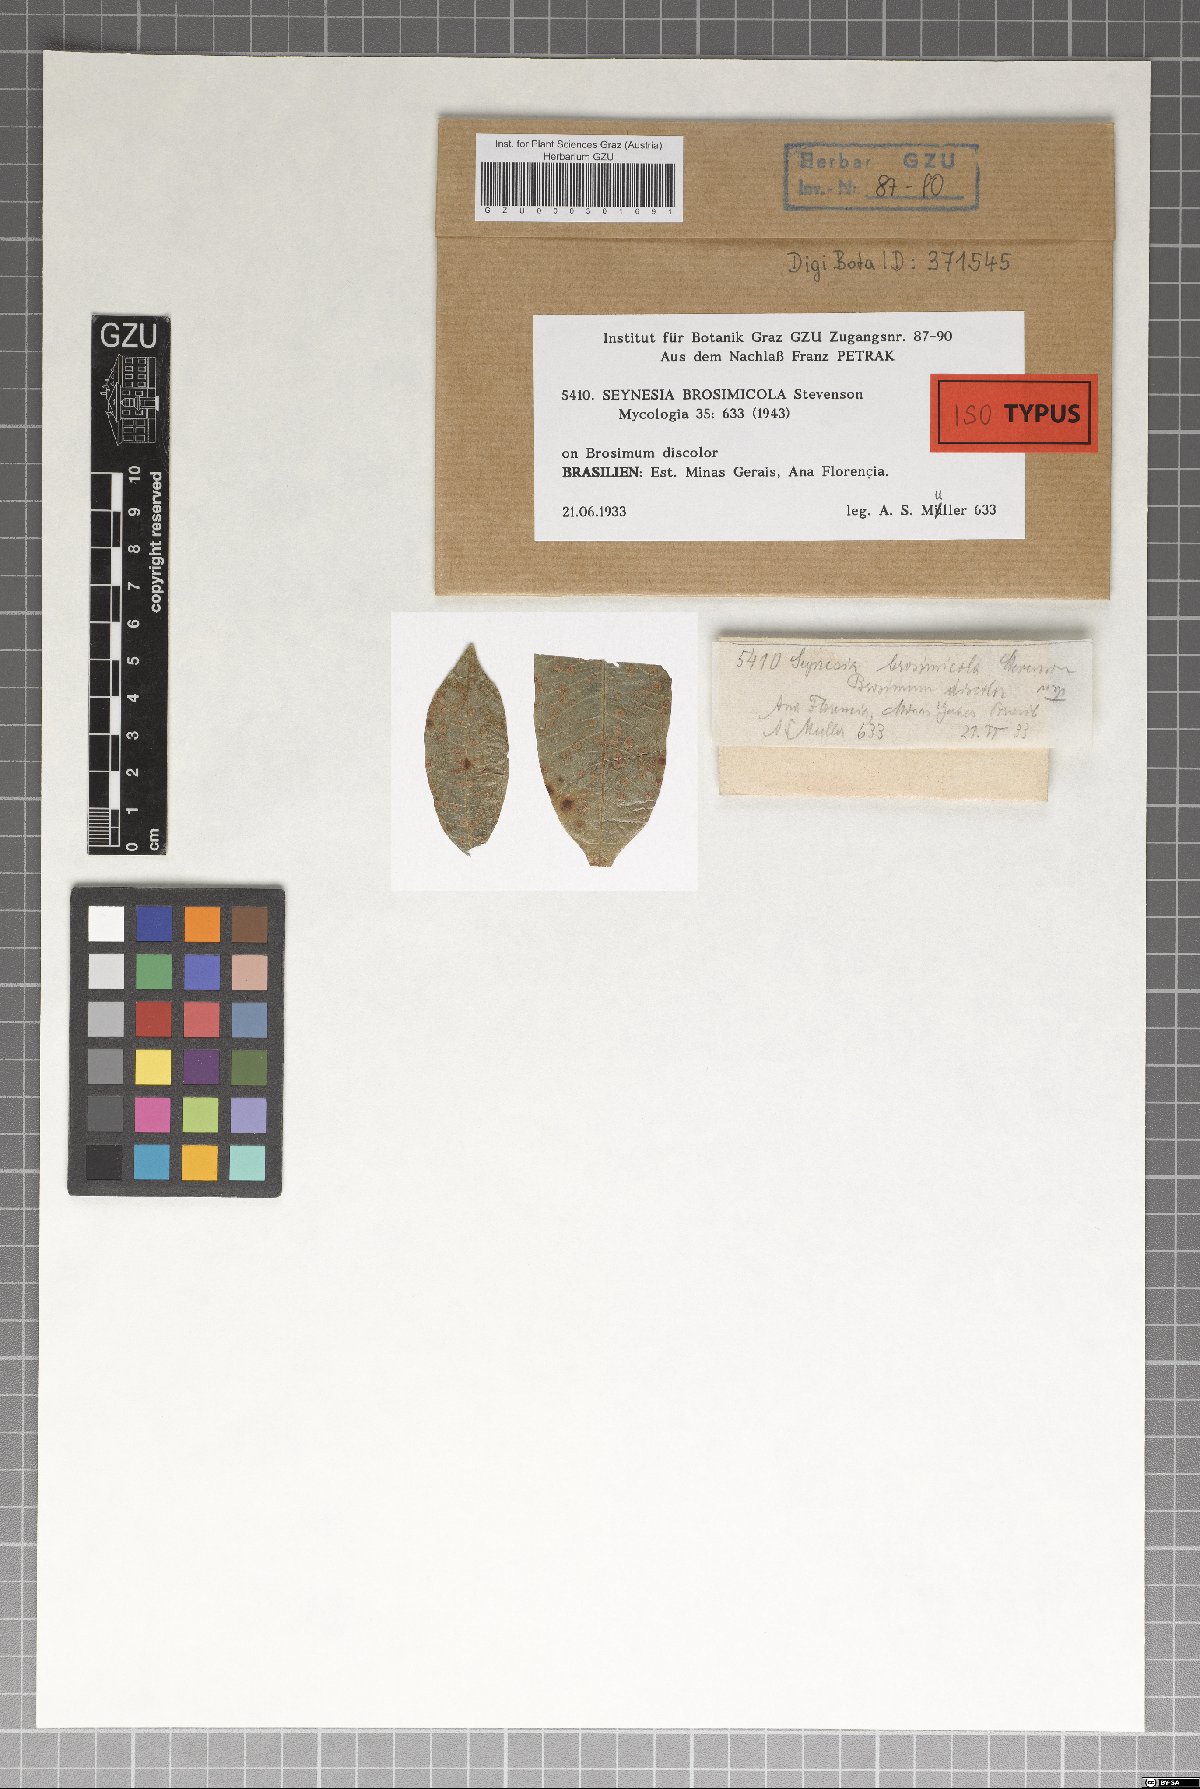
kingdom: Fungi
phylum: Ascomycota
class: Sordariomycetes
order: Xylariales
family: Cainiaceae
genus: Seynesia
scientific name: Seynesia brosimicola
